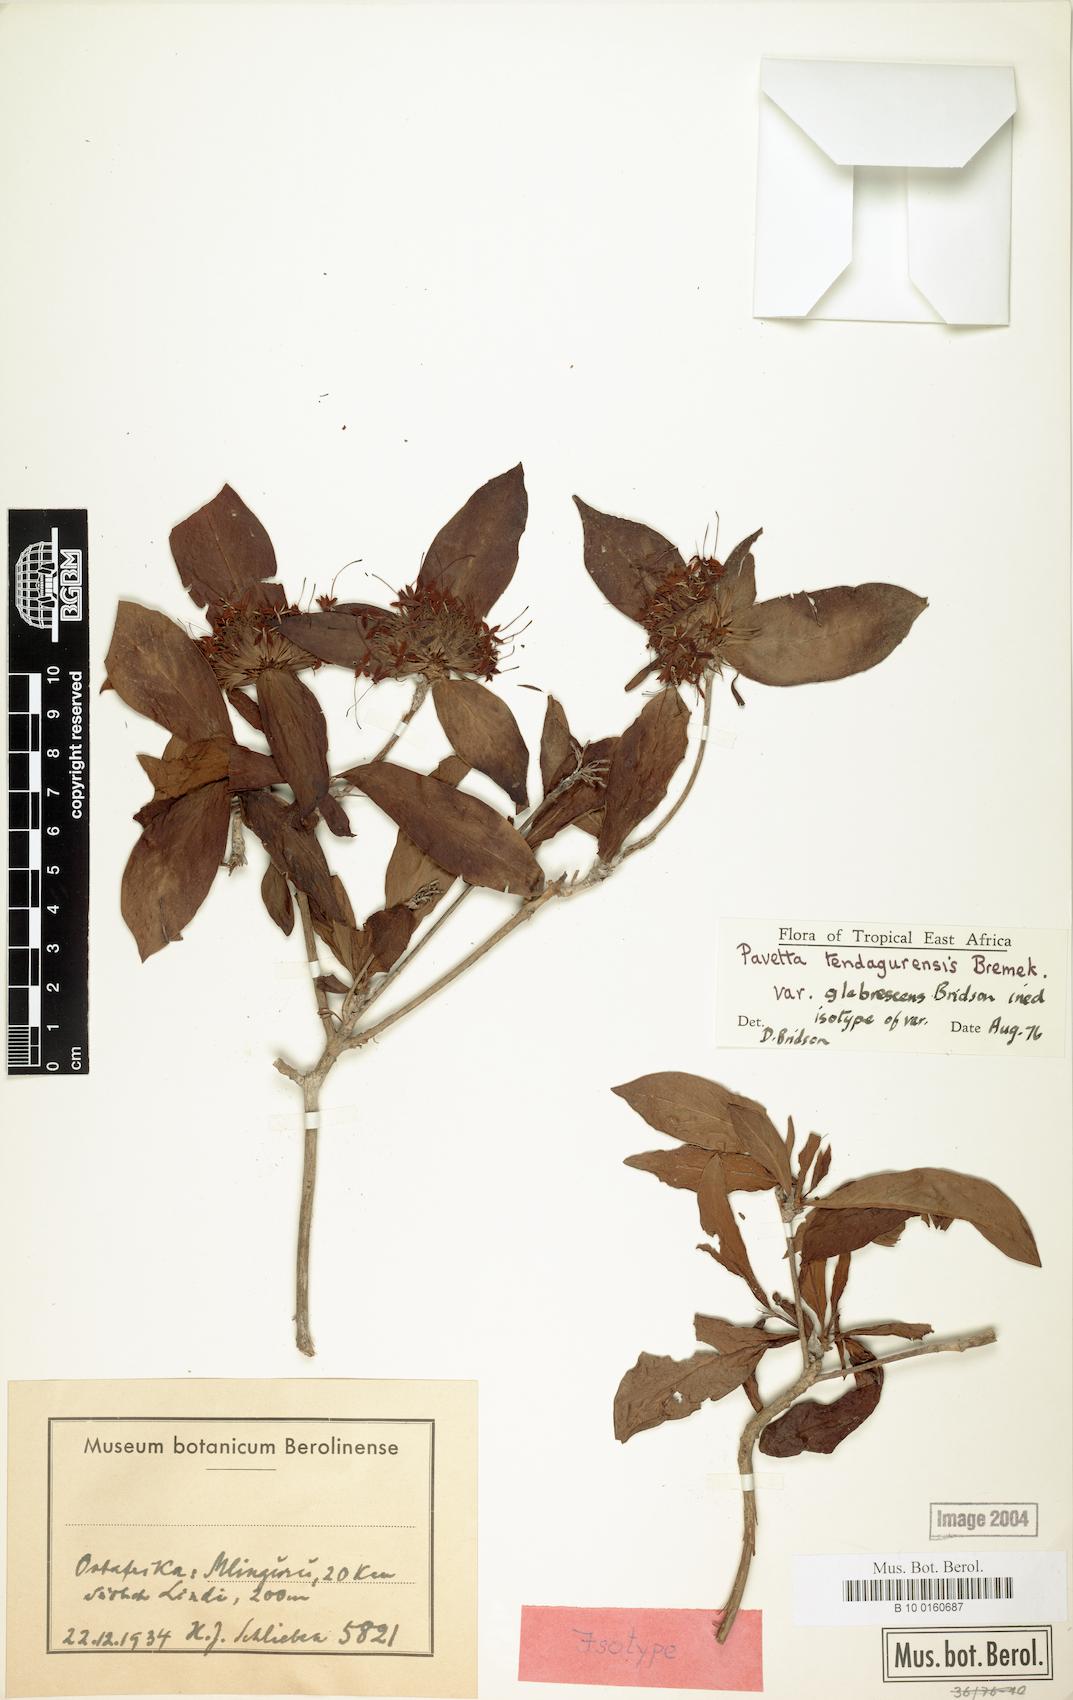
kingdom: Plantae
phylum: Tracheophyta
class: Magnoliopsida
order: Gentianales
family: Rubiaceae
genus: Pavetta
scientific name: Pavetta tendagurensis
